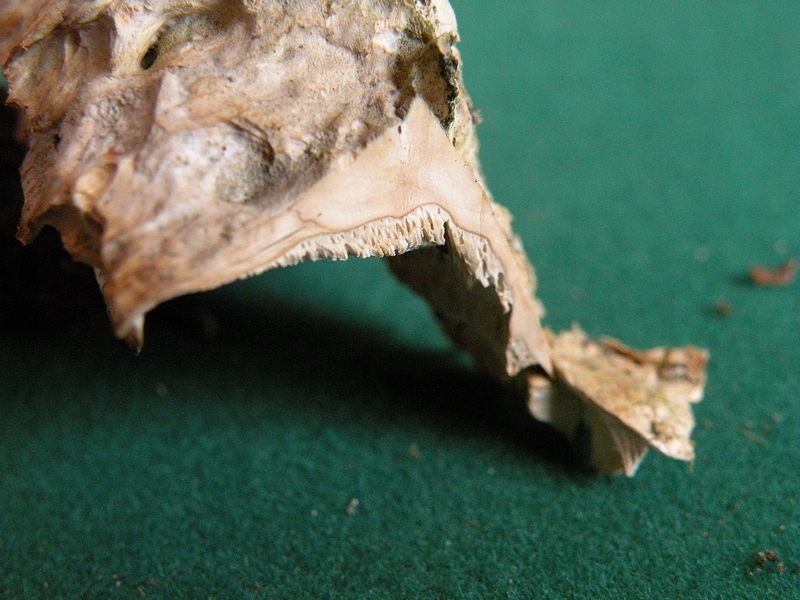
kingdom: Fungi
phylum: Basidiomycota
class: Agaricomycetes
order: Polyporales
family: Phanerochaetaceae
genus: Bjerkandera
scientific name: Bjerkandera fumosa
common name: grågul sodporesvamp
